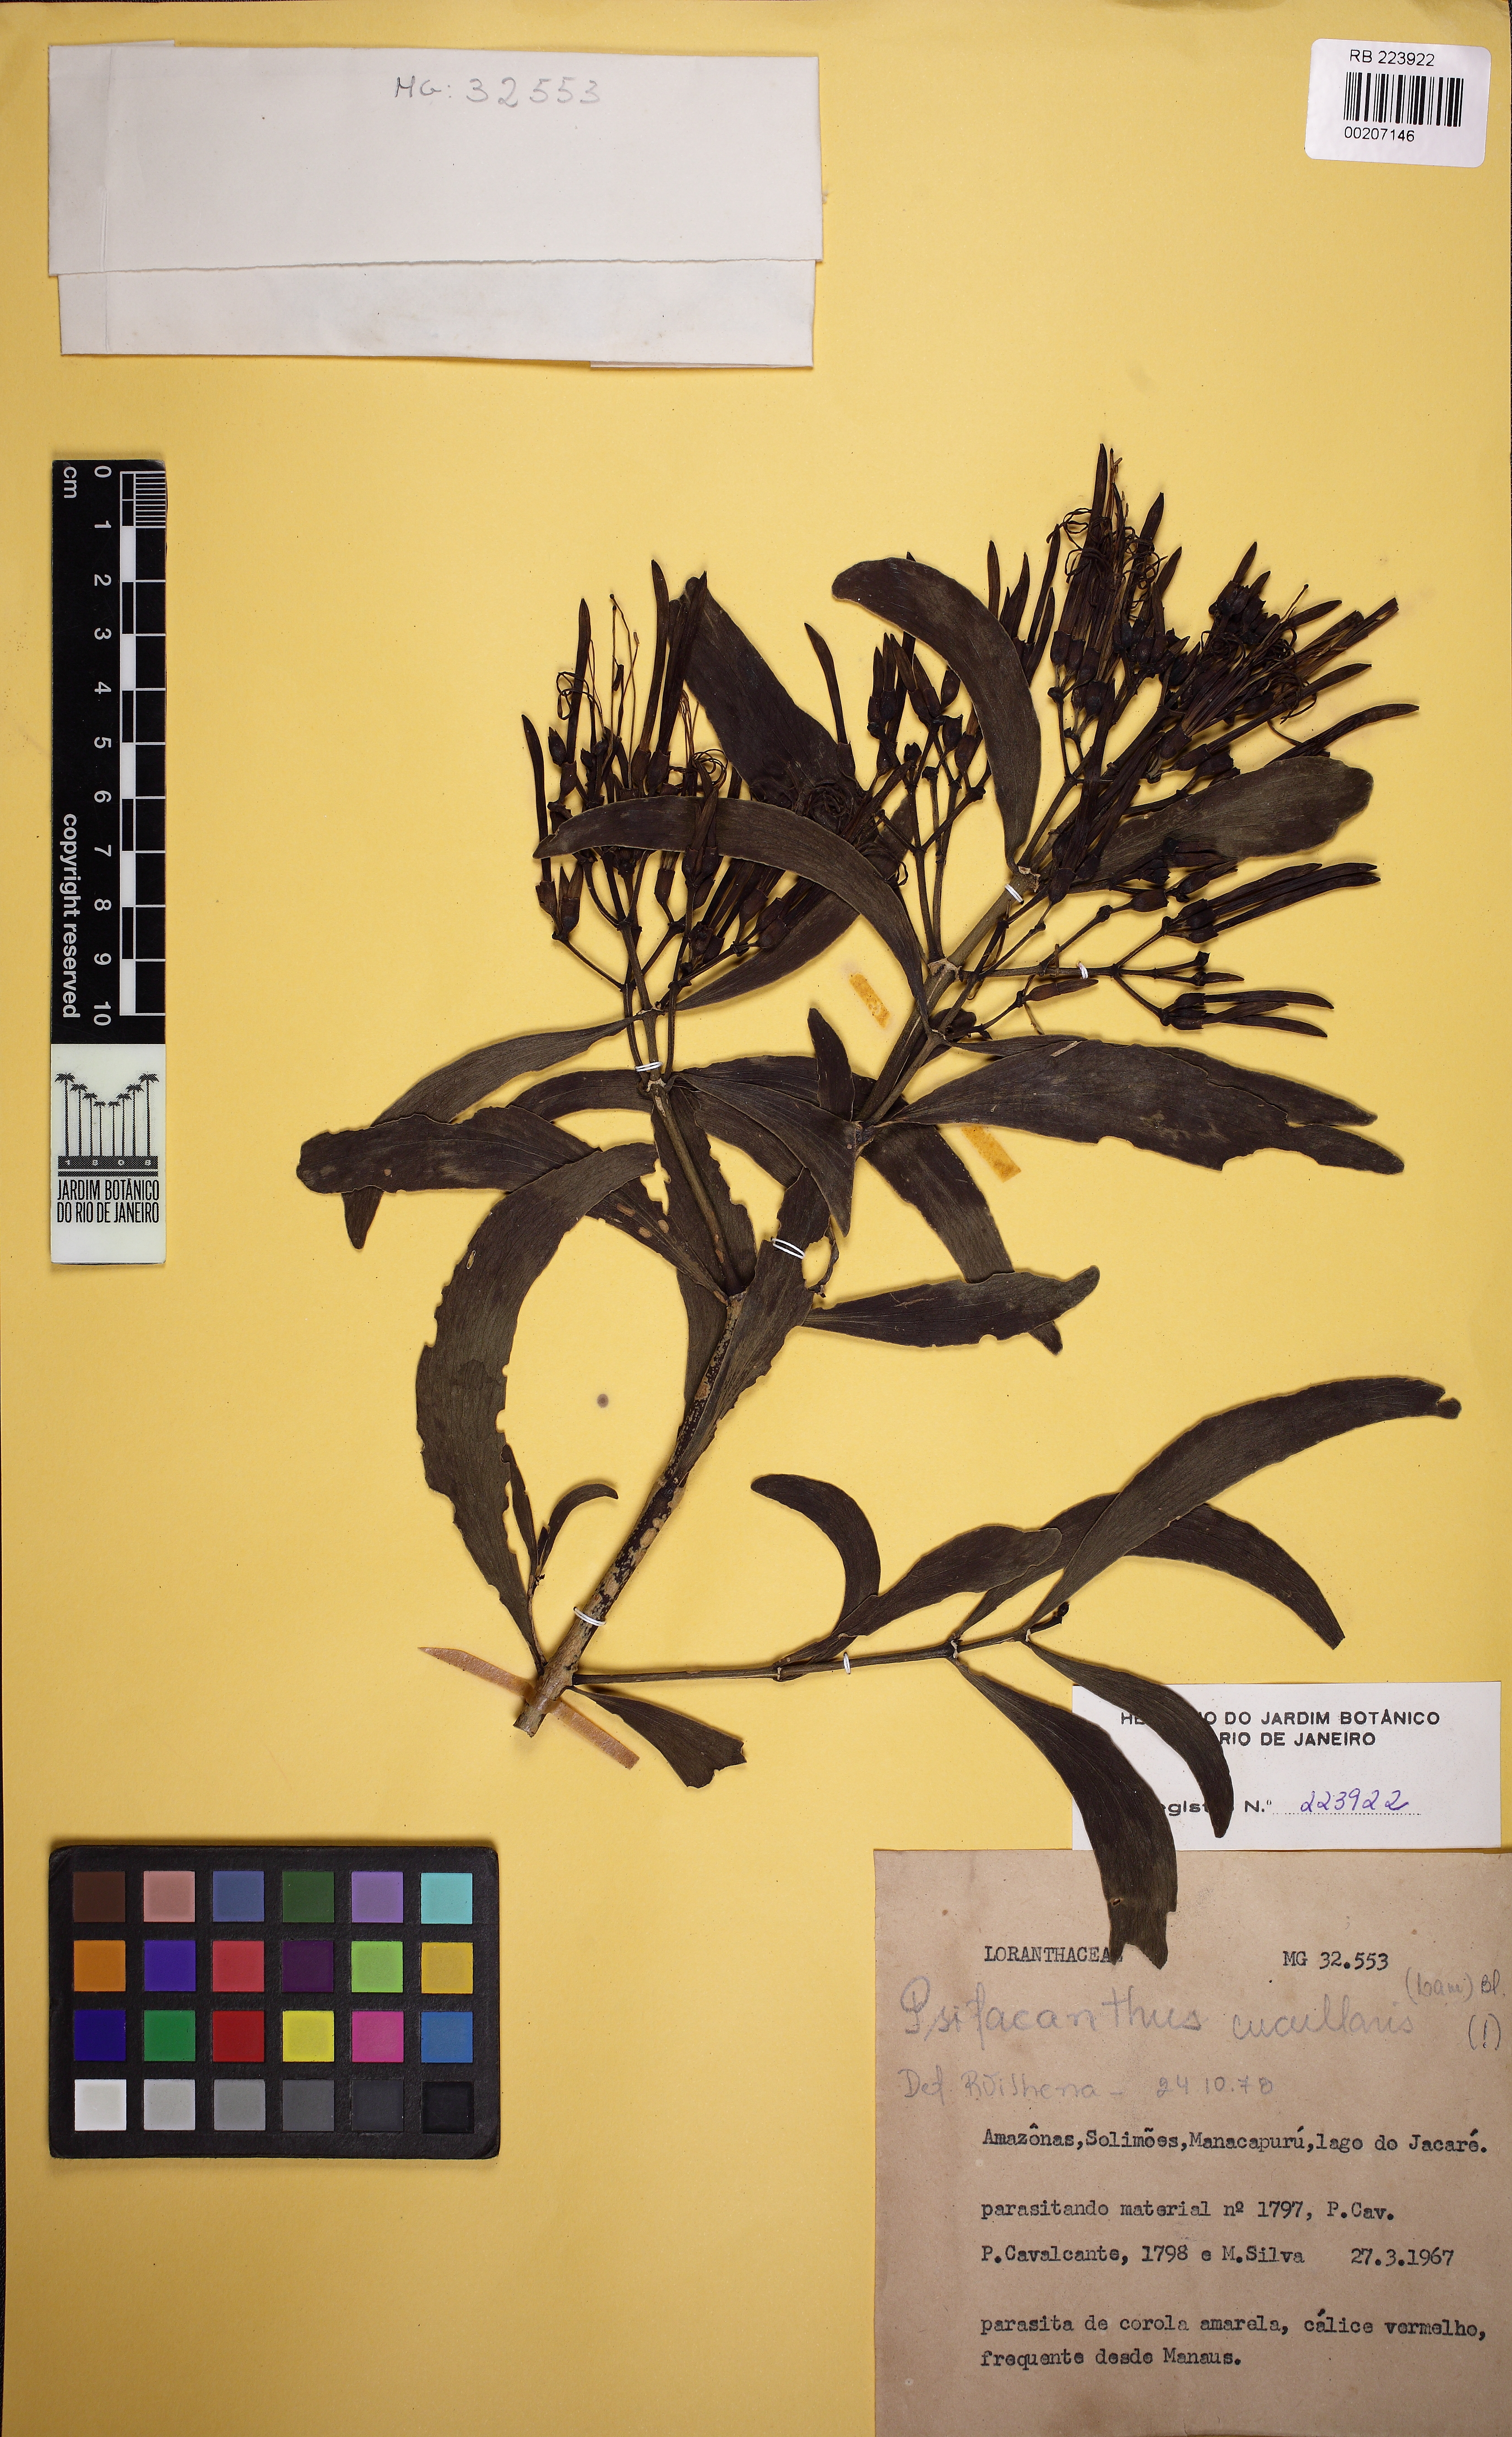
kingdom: Plantae
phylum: Tracheophyta
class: Magnoliopsida
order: Santalales
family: Loranthaceae
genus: Psittacanthus
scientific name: Psittacanthus cucullaris
